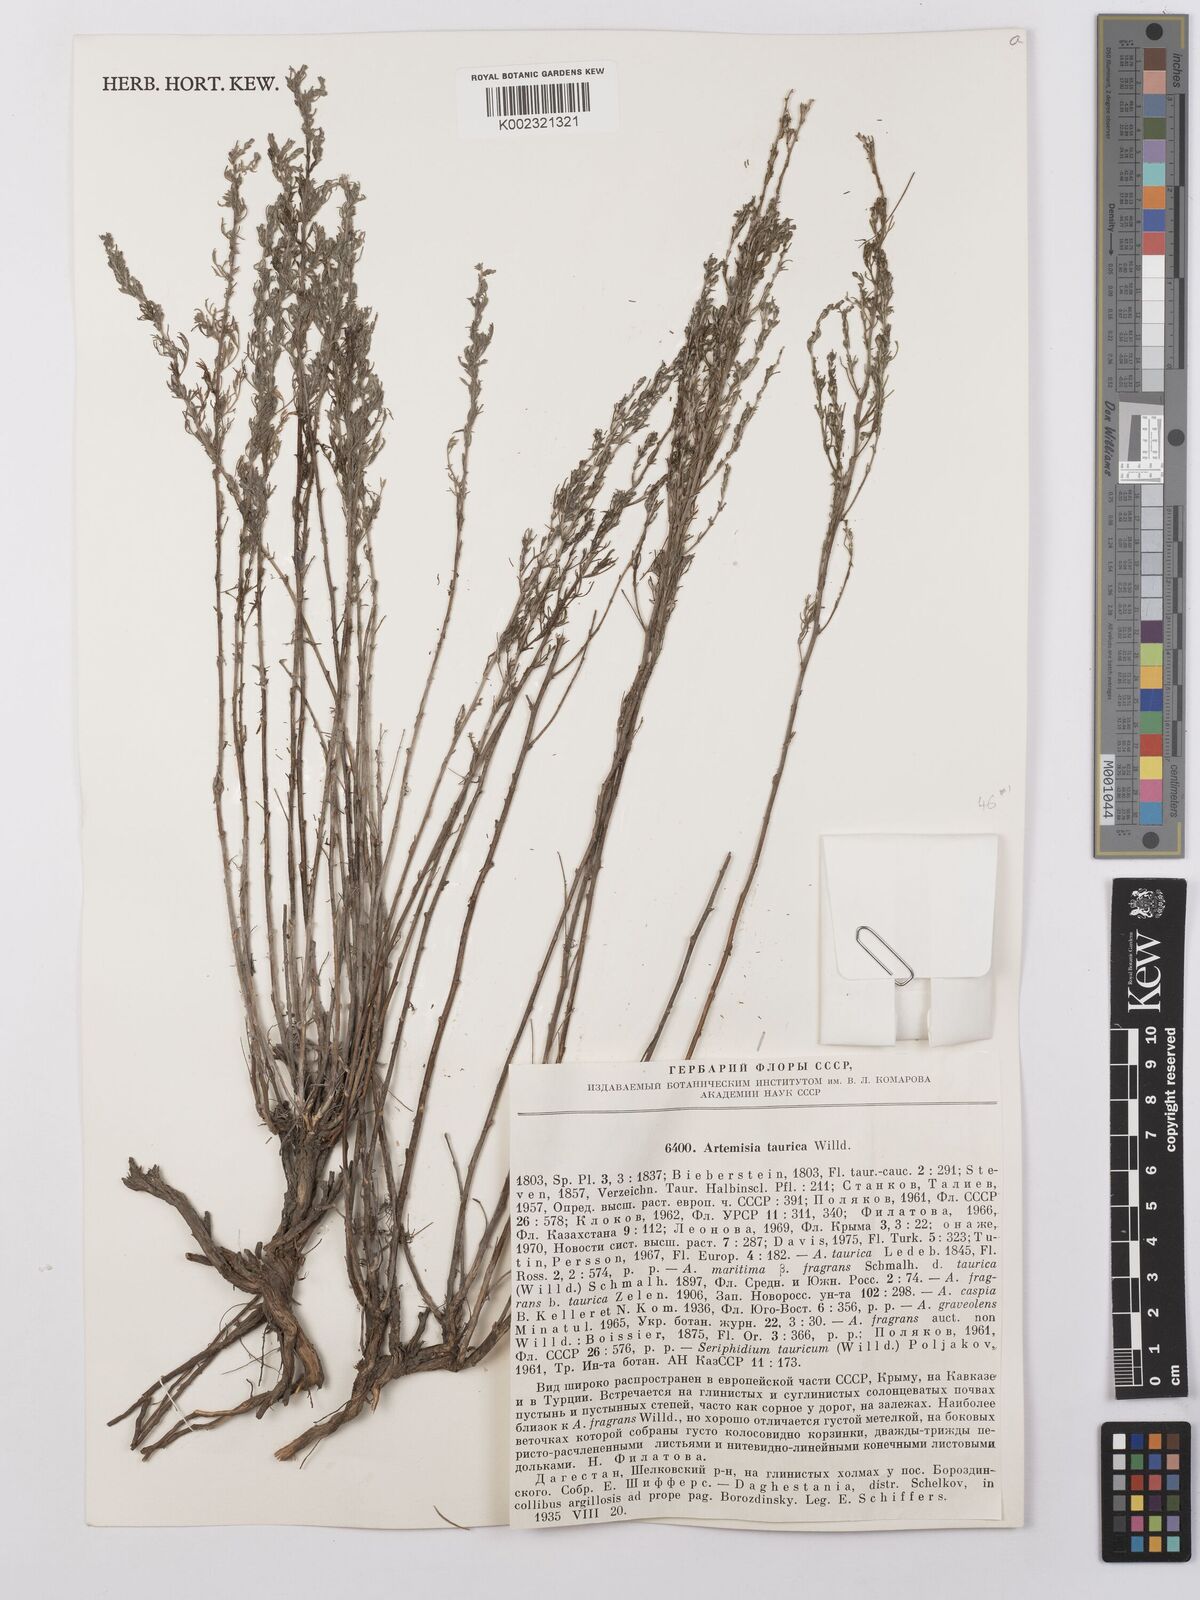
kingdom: Plantae
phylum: Tracheophyta
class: Magnoliopsida
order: Asterales
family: Asteraceae
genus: Artemisia
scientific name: Artemisia taurica
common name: Tauric wormwood
